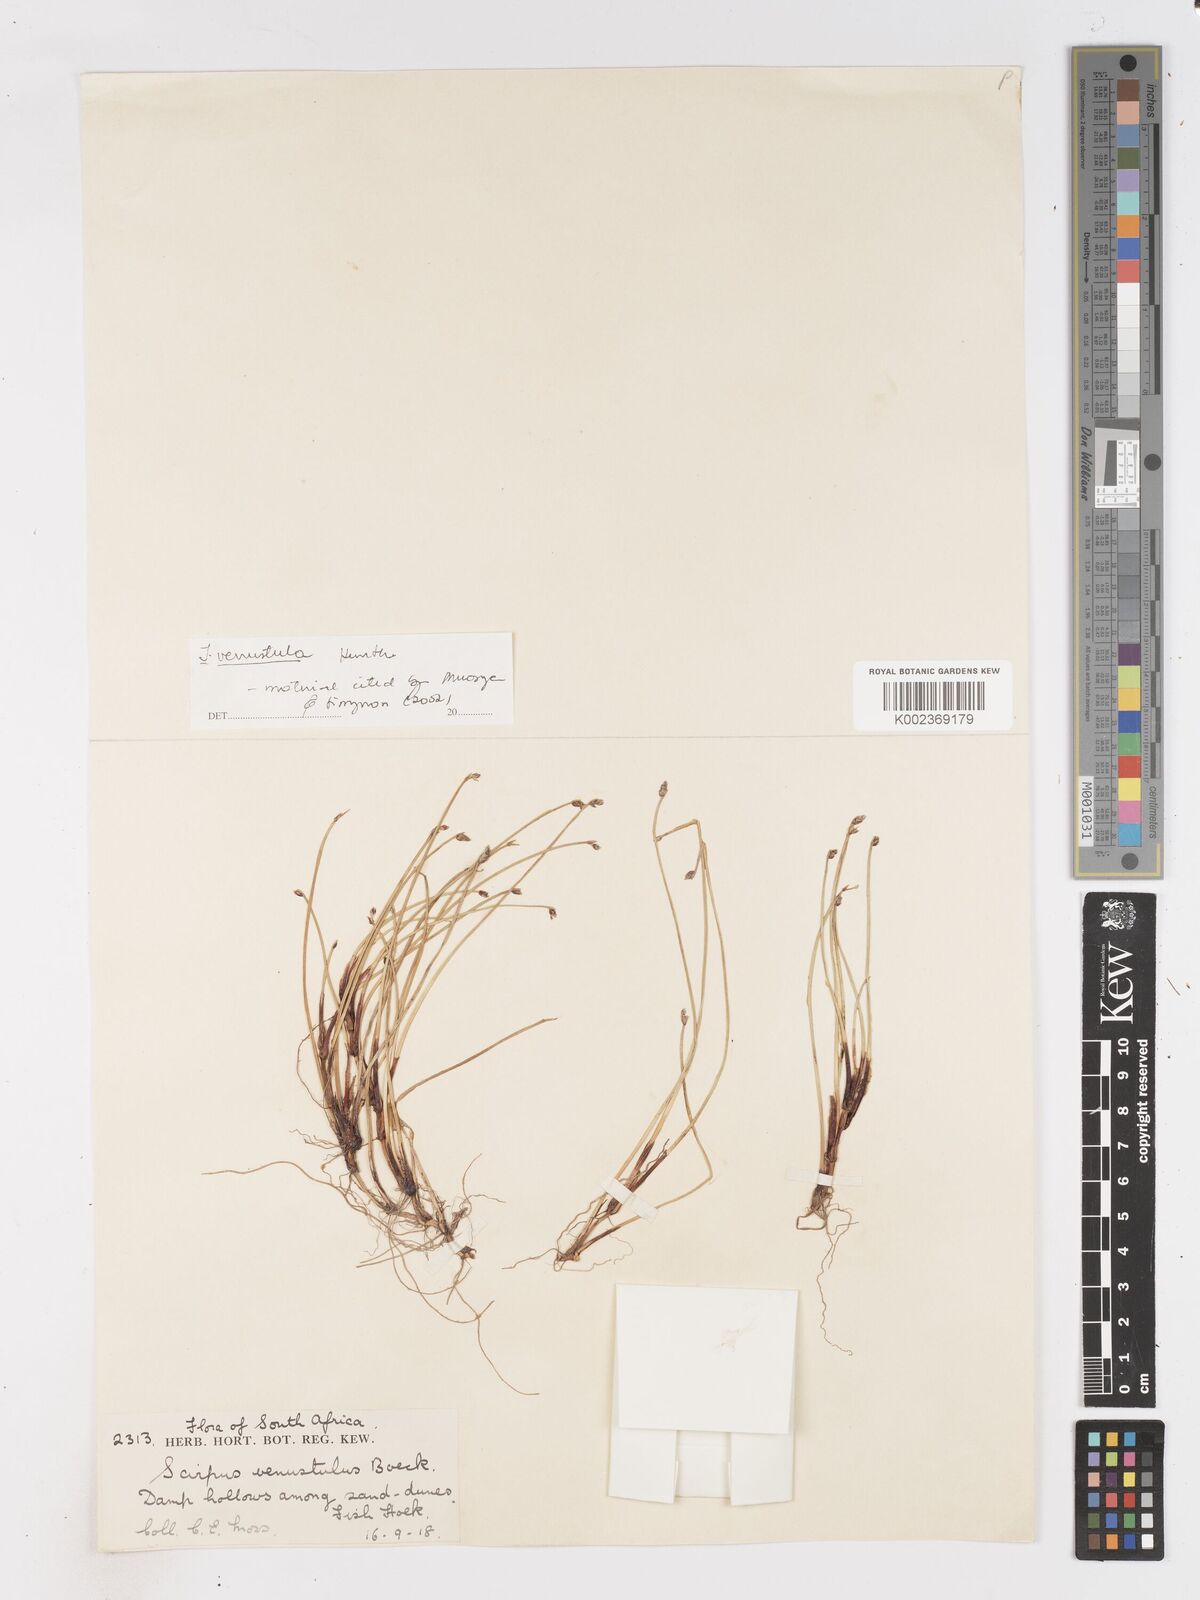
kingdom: Plantae
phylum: Tracheophyta
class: Liliopsida
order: Poales
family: Cyperaceae
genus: Isolepis
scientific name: Isolepis venustula
